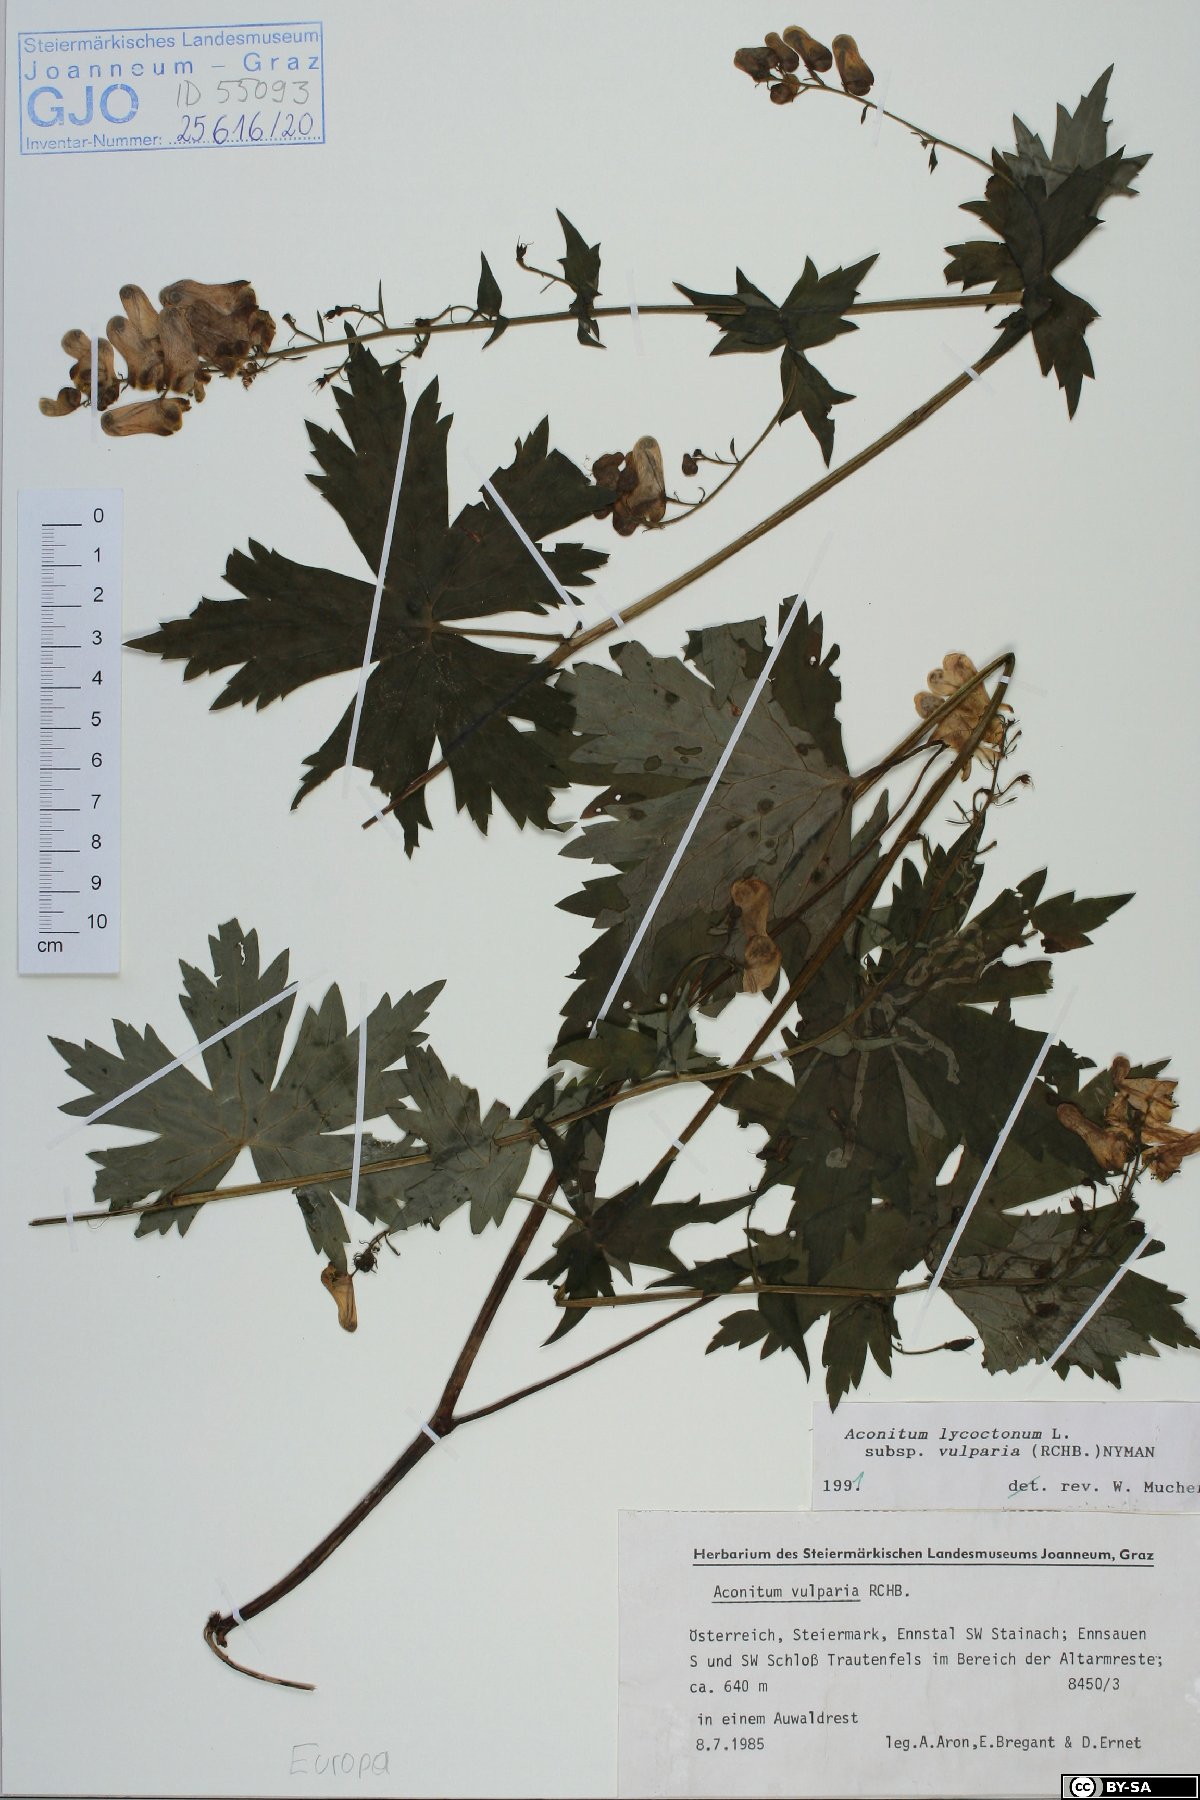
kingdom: Plantae
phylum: Tracheophyta
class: Magnoliopsida
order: Ranunculales
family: Ranunculaceae
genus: Aconitum
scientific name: Aconitum lycoctonum
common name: Wolf's-bane
